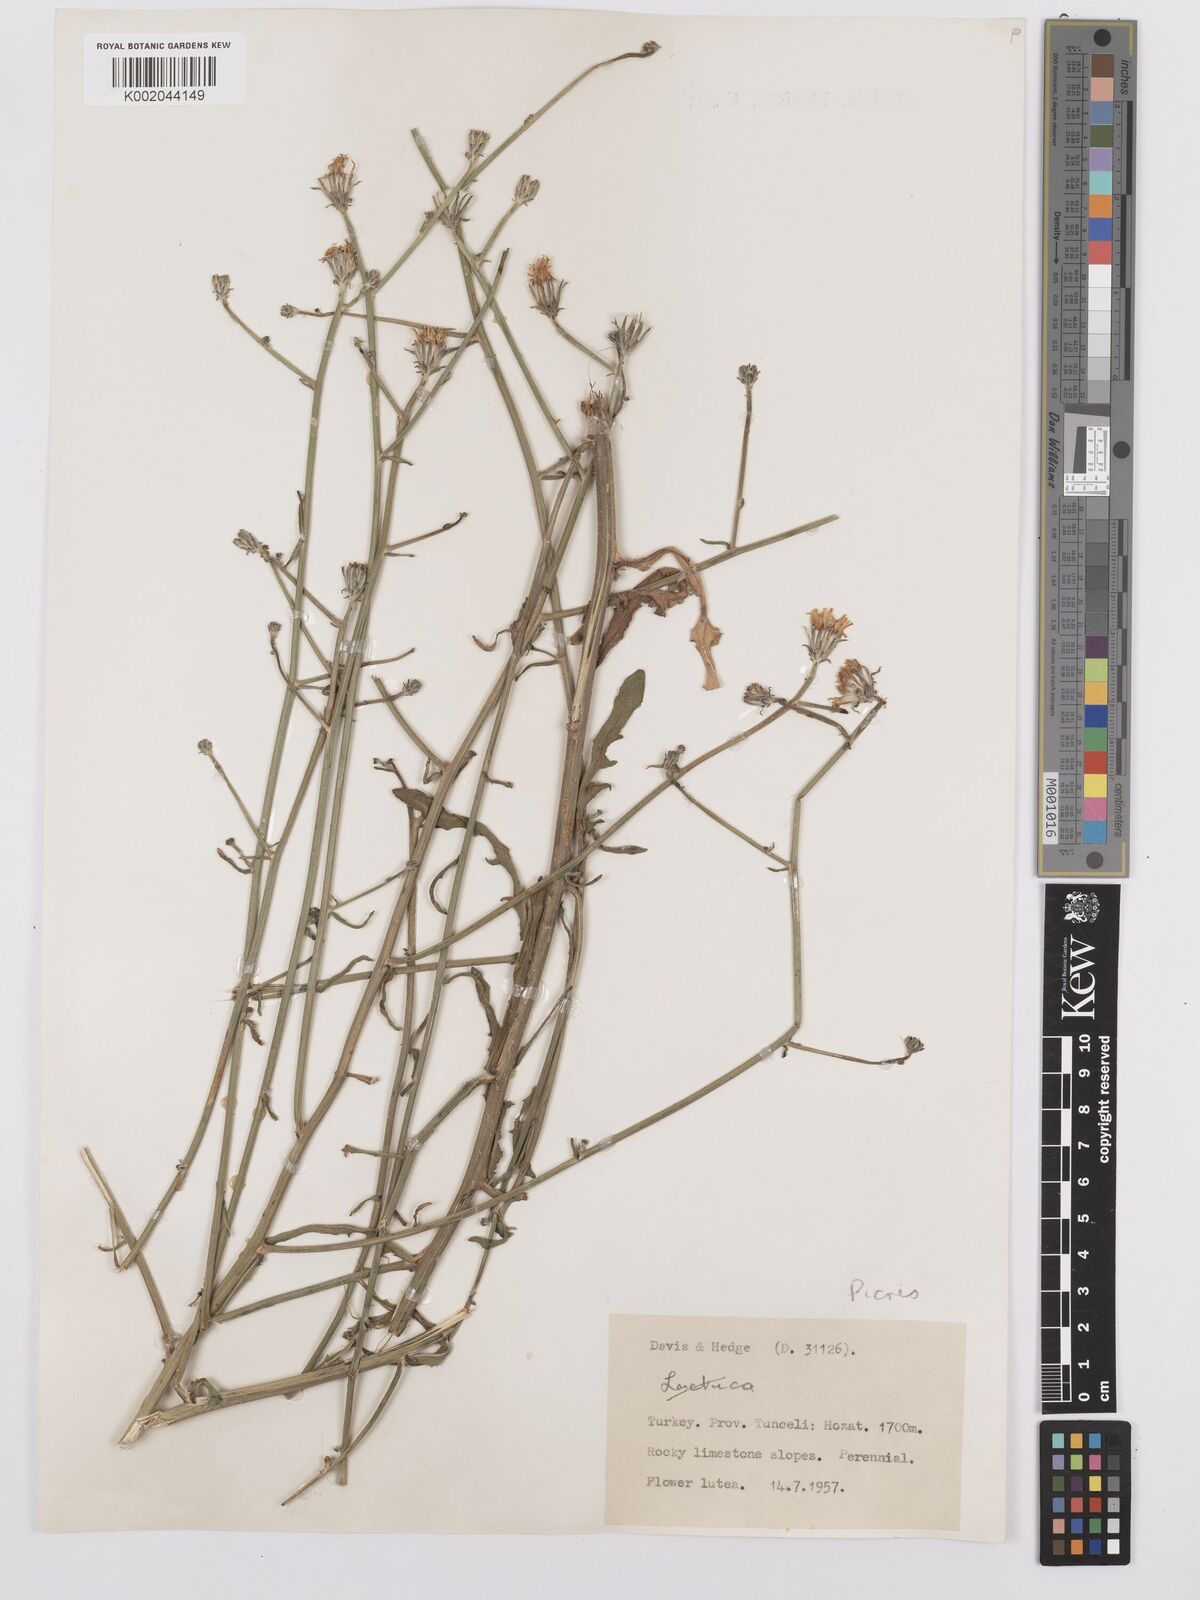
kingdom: Plantae
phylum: Tracheophyta
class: Magnoliopsida
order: Asterales
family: Asteraceae
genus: Picris
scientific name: Picris
